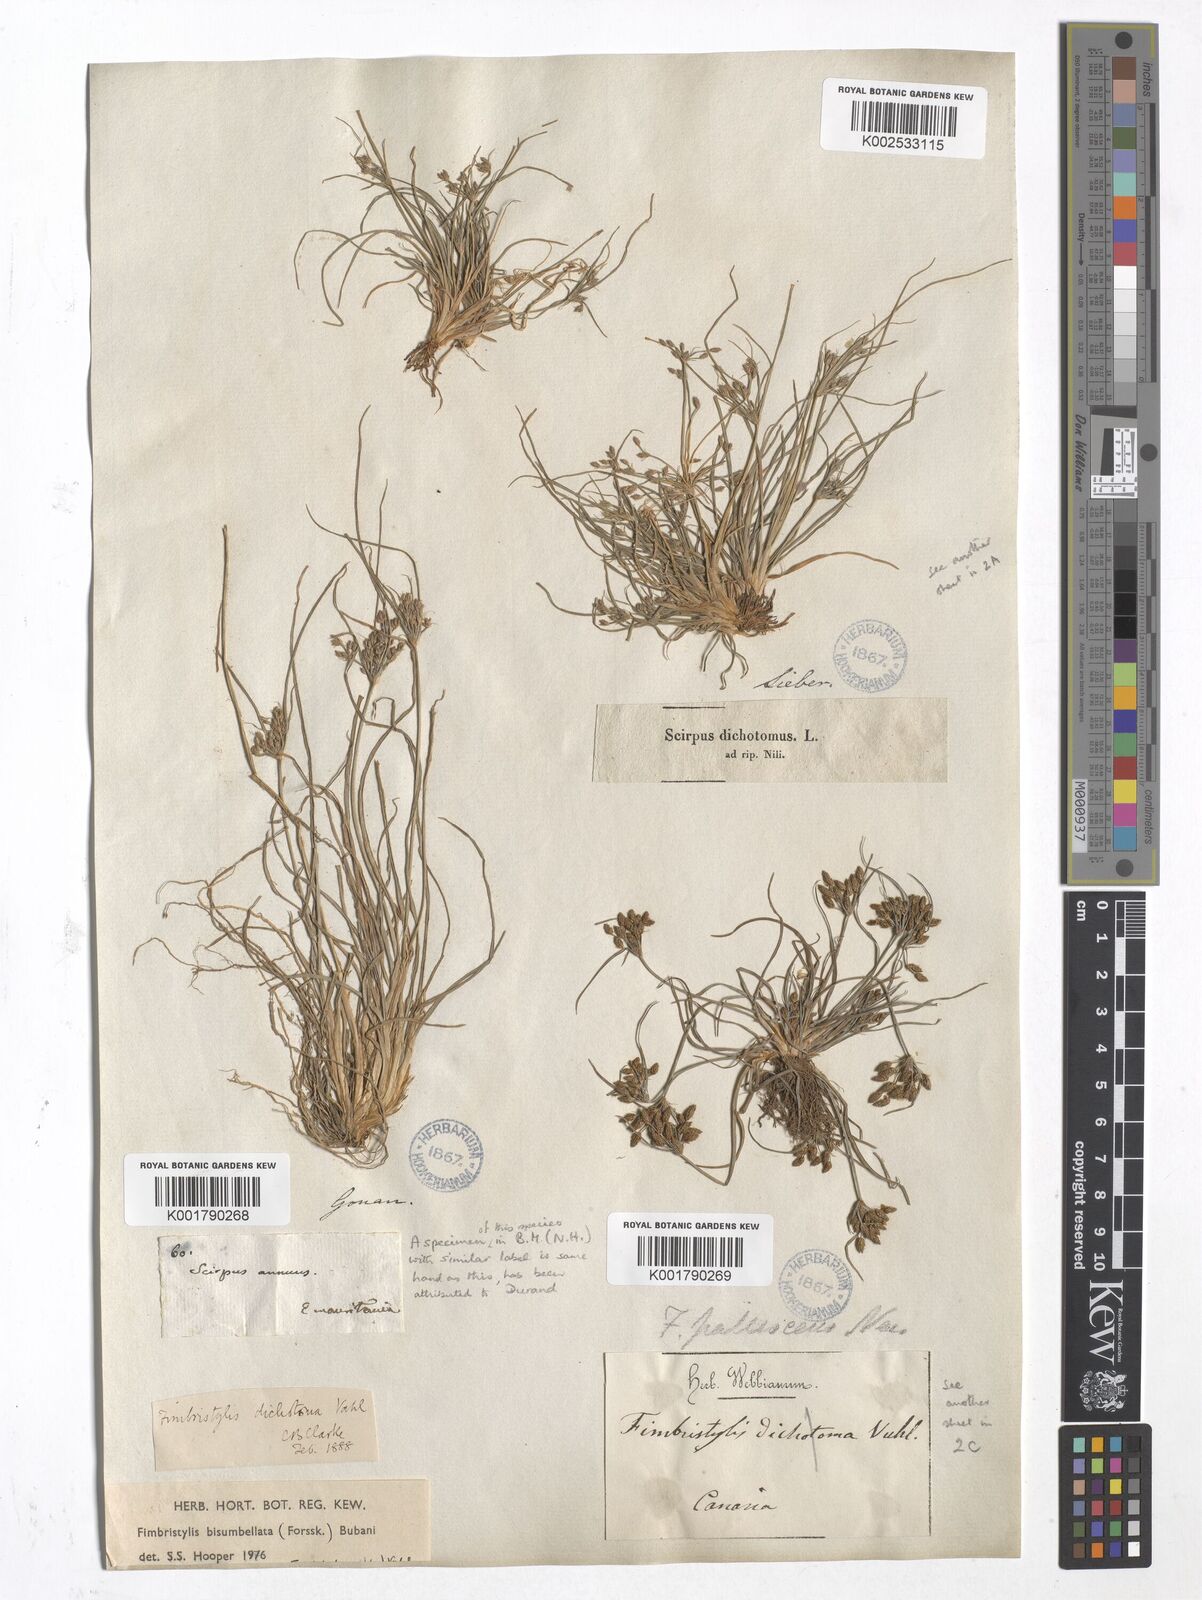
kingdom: Plantae
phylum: Tracheophyta
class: Liliopsida
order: Poales
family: Cyperaceae
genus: Fimbristylis
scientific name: Fimbristylis bisumbellata
